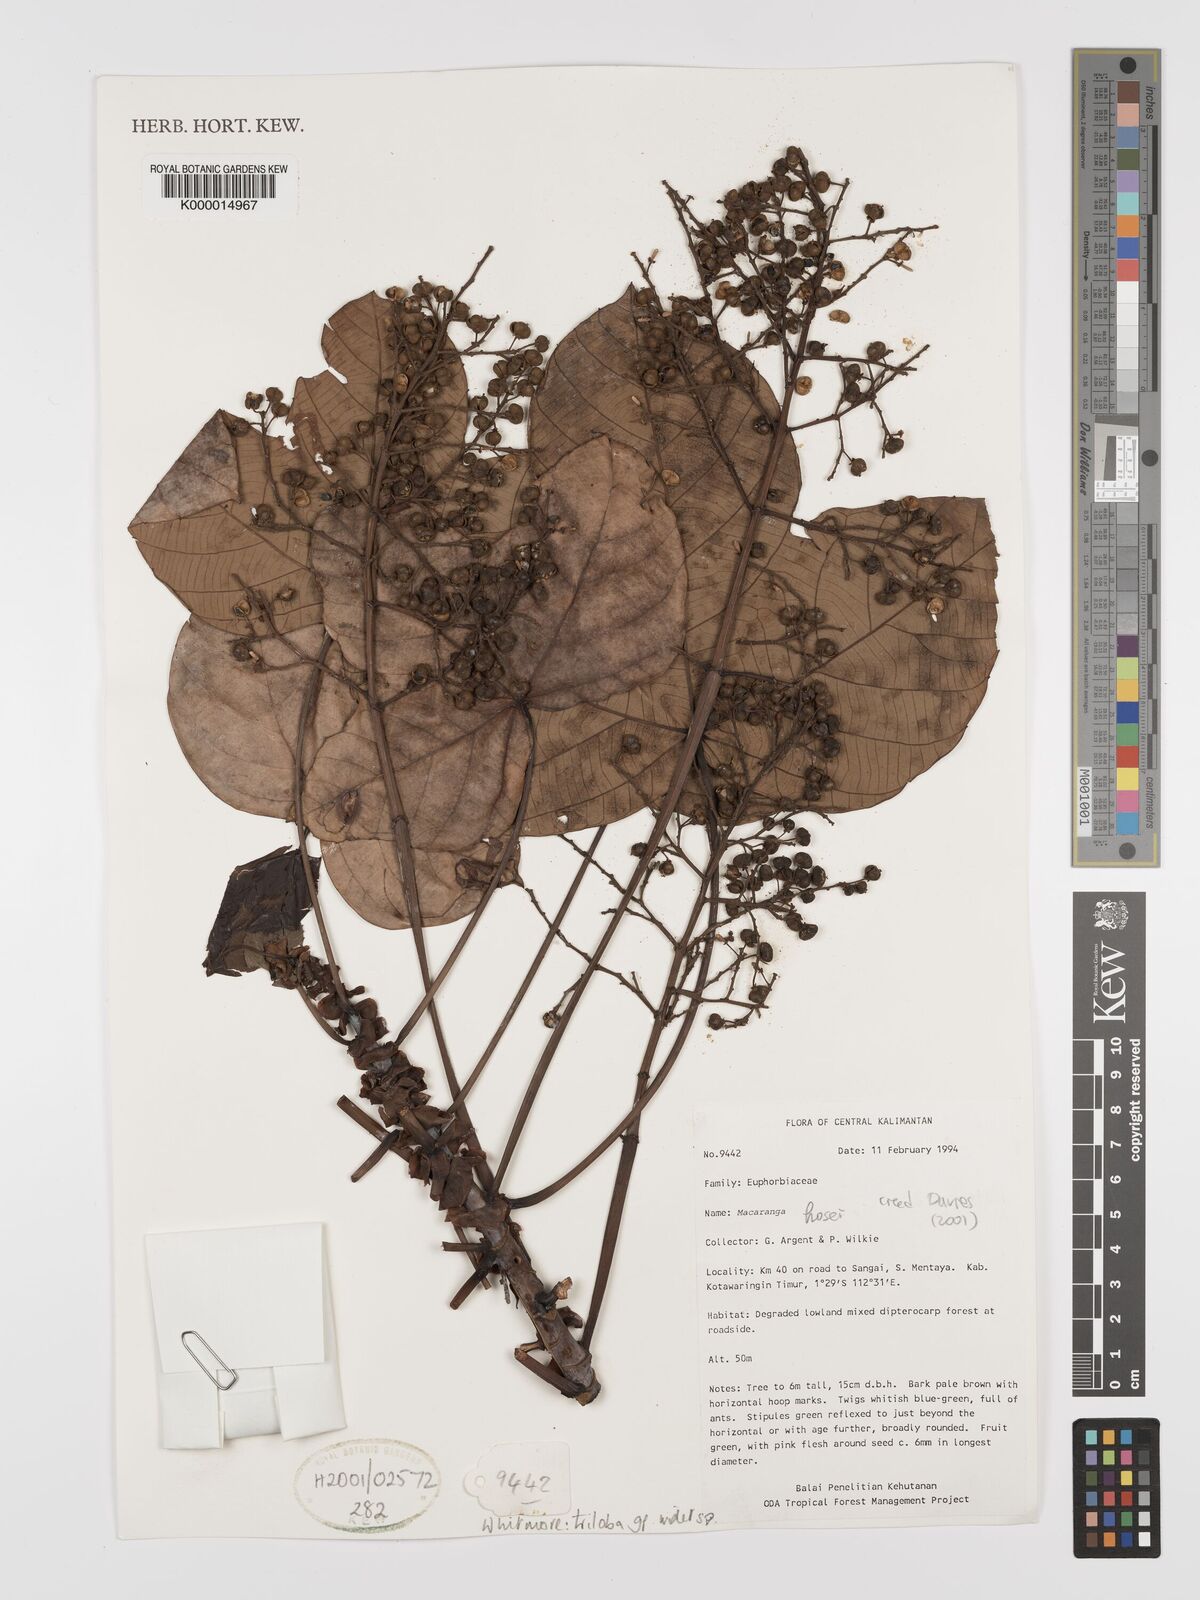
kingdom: Plantae
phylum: Tracheophyta
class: Magnoliopsida
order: Malpighiales
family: Euphorbiaceae
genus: Macaranga
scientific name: Macaranga pearsonii
